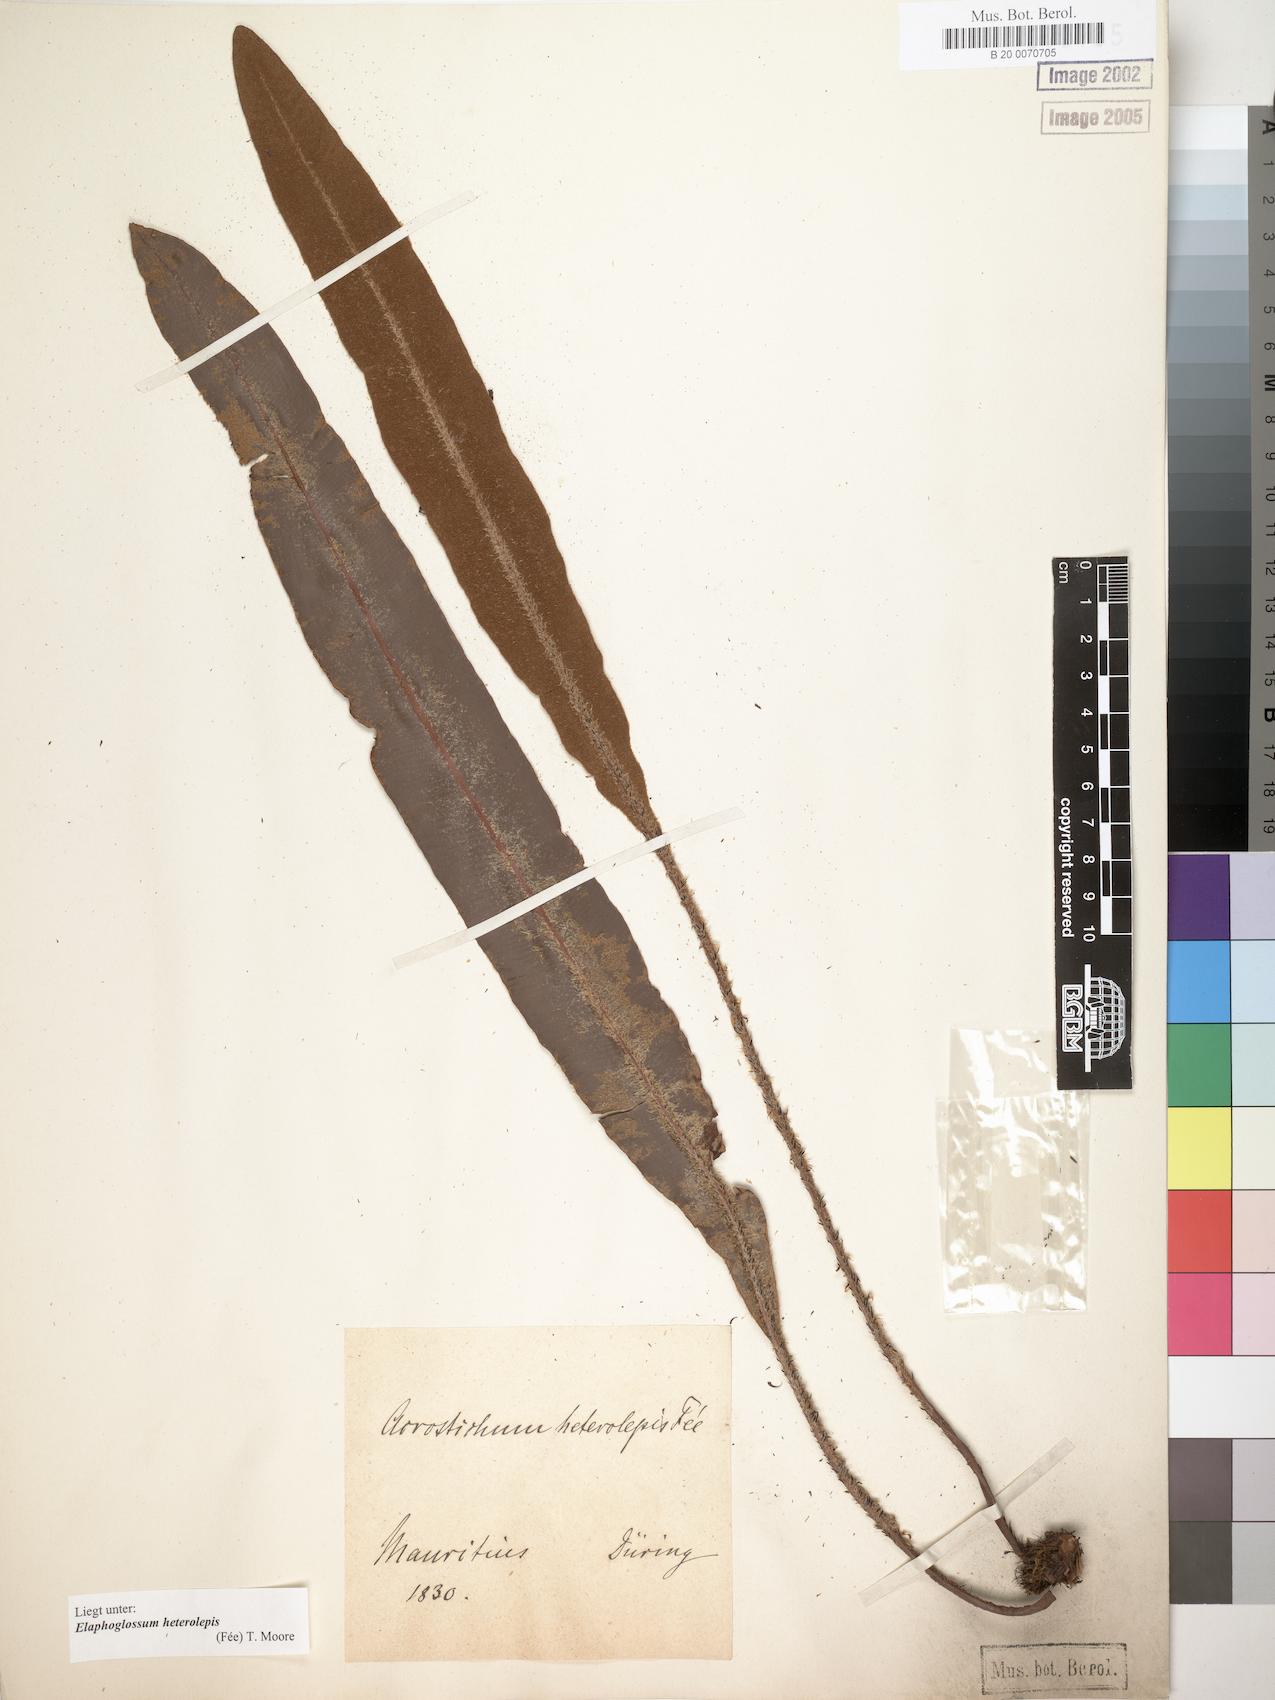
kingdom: Plantae
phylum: Tracheophyta
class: Polypodiopsida
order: Polypodiales
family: Dryopteridaceae
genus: Elaphoglossum
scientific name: Elaphoglossum heterolepis
